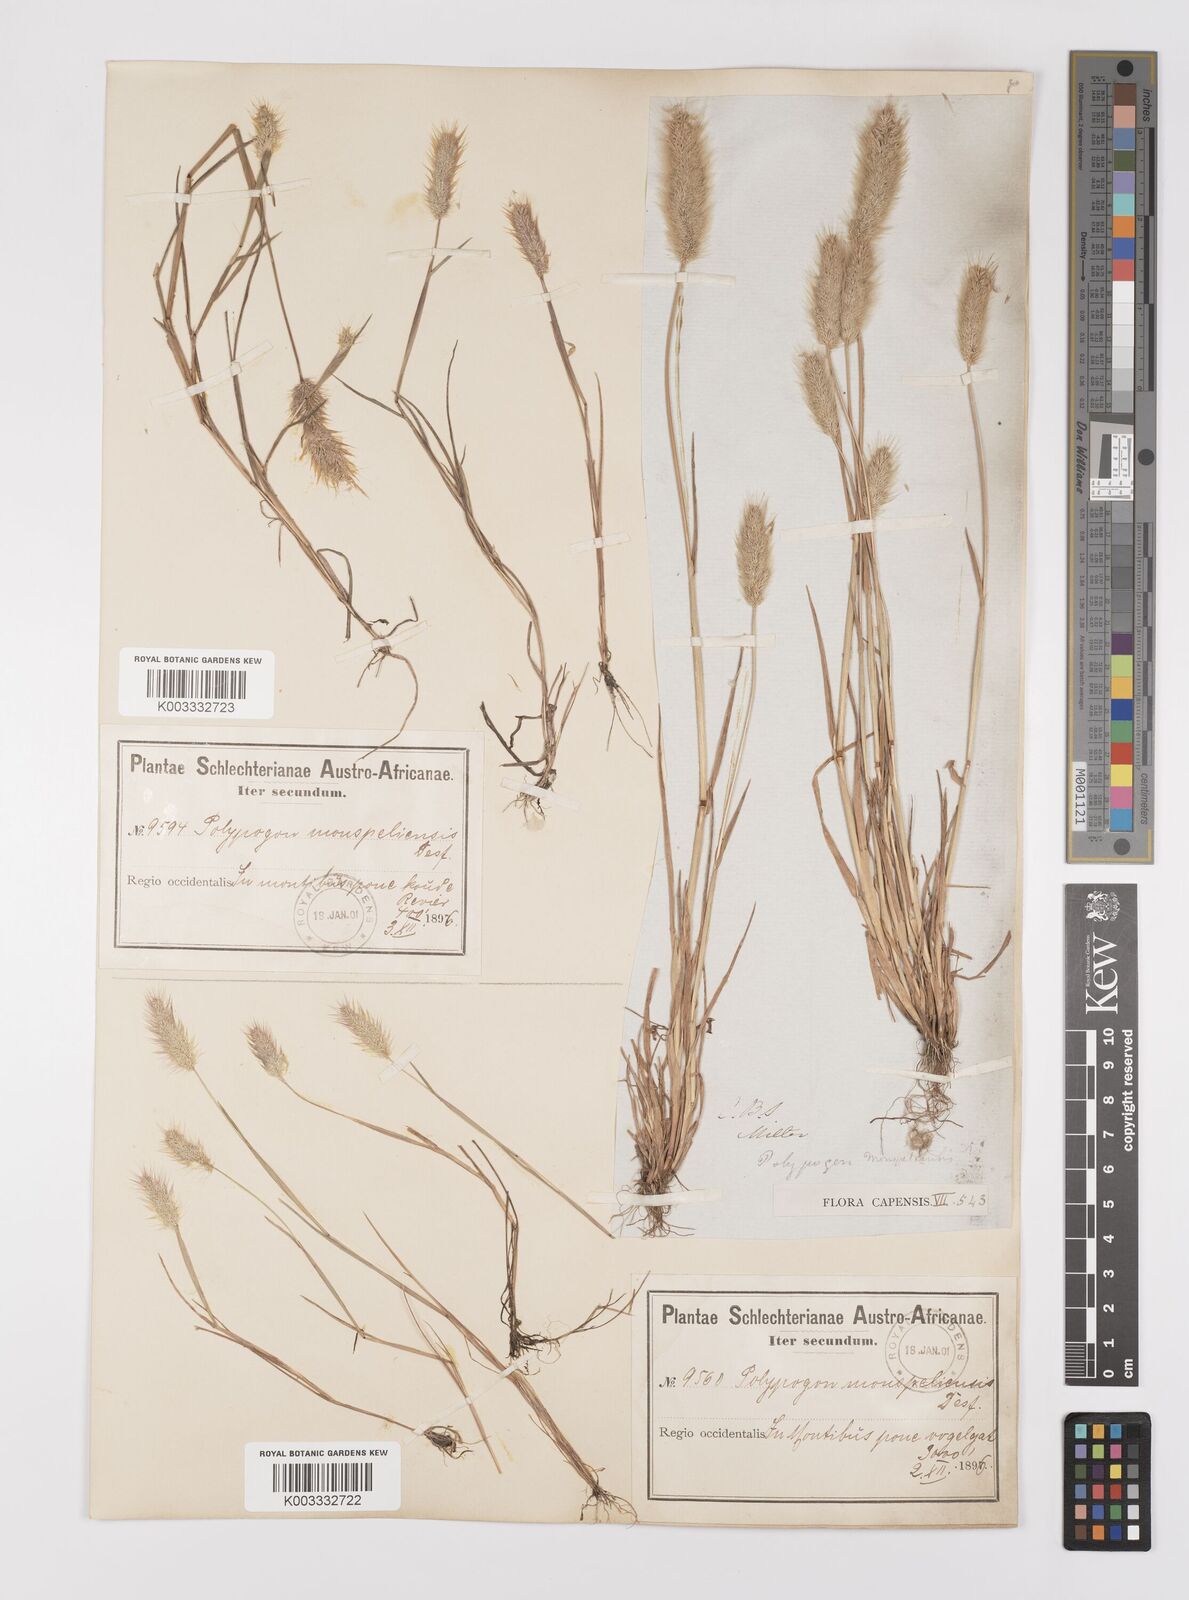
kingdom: Plantae
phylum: Tracheophyta
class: Liliopsida
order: Poales
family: Poaceae
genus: Polypogon
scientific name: Polypogon monspeliensis
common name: Annual rabbitsfoot grass
